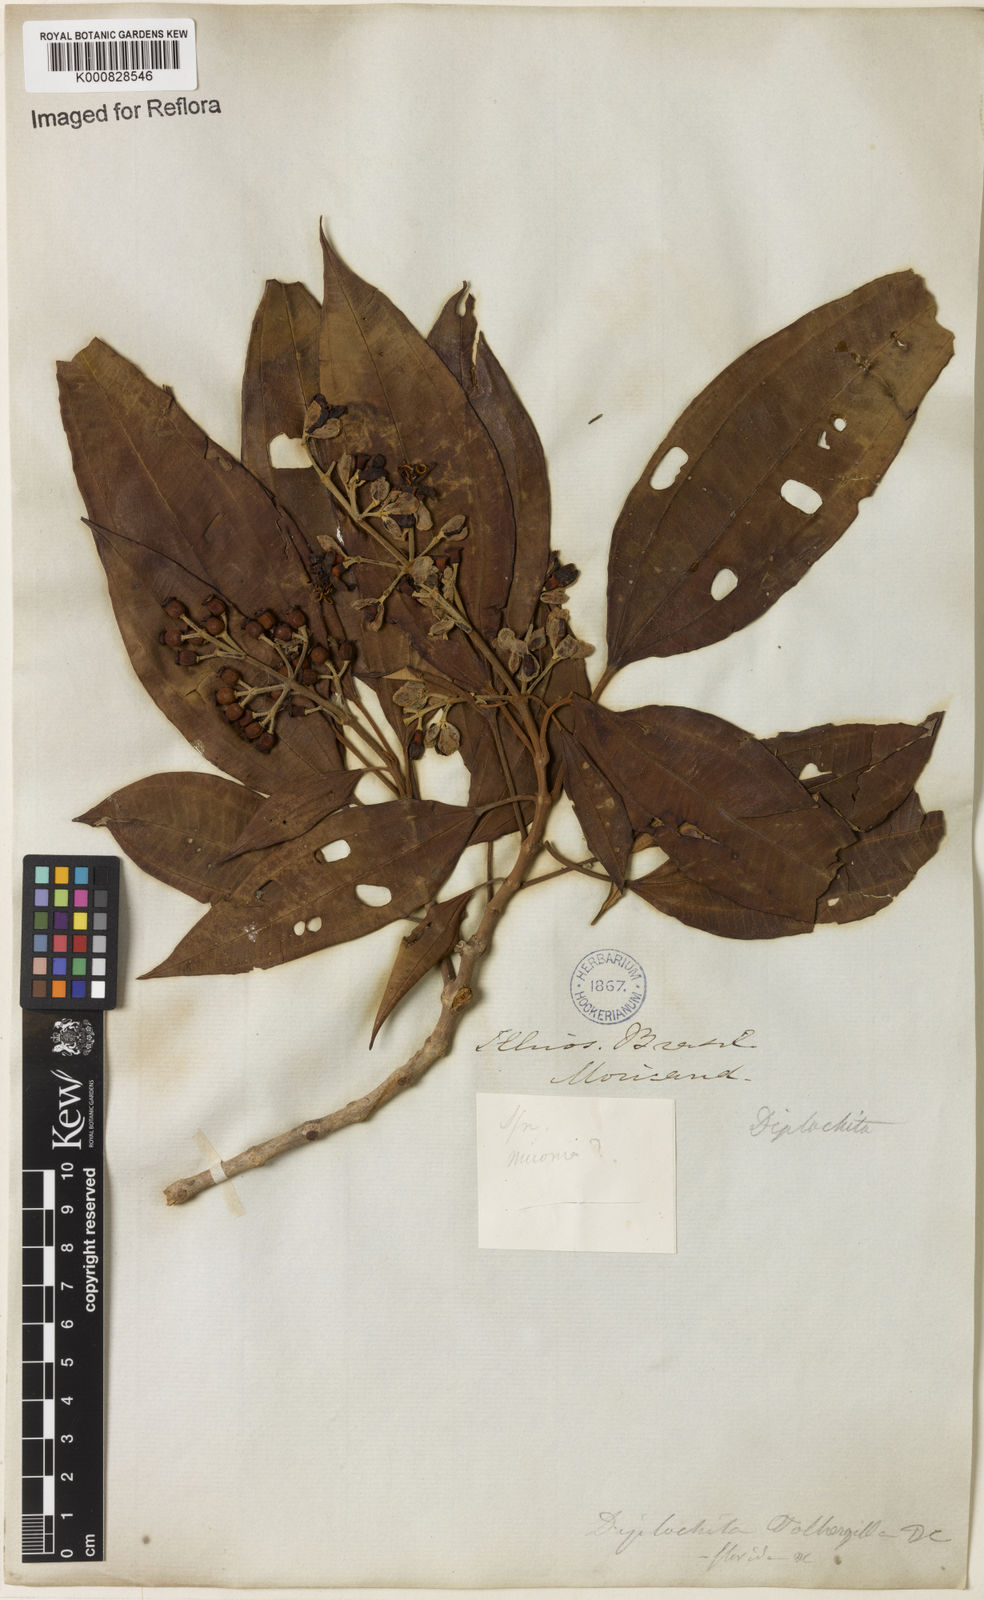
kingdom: Plantae
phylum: Tracheophyta
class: Magnoliopsida
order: Myrtales
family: Melastomataceae
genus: Miconia
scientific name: Miconia mirabilis
